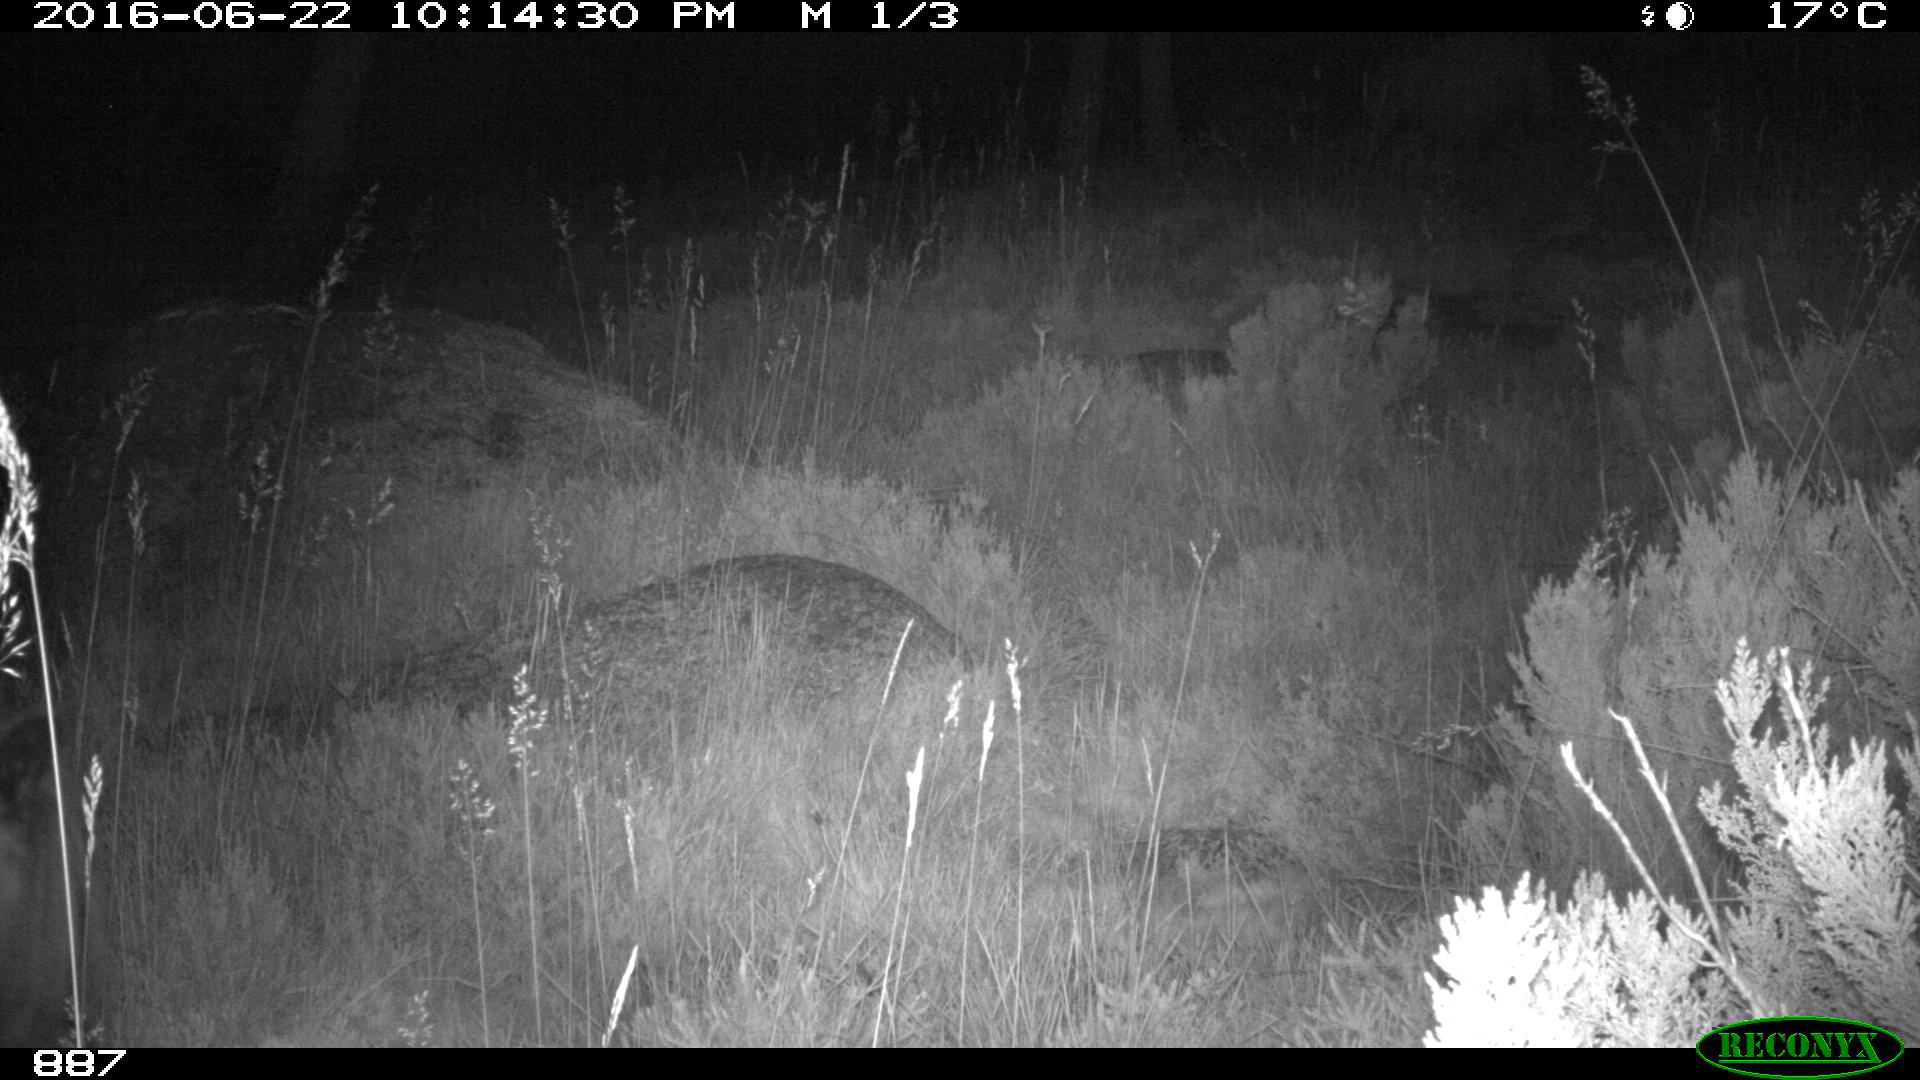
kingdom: Animalia
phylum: Chordata
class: Mammalia
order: Perissodactyla
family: Equidae
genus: Equus
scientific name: Equus caballus
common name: Horse
